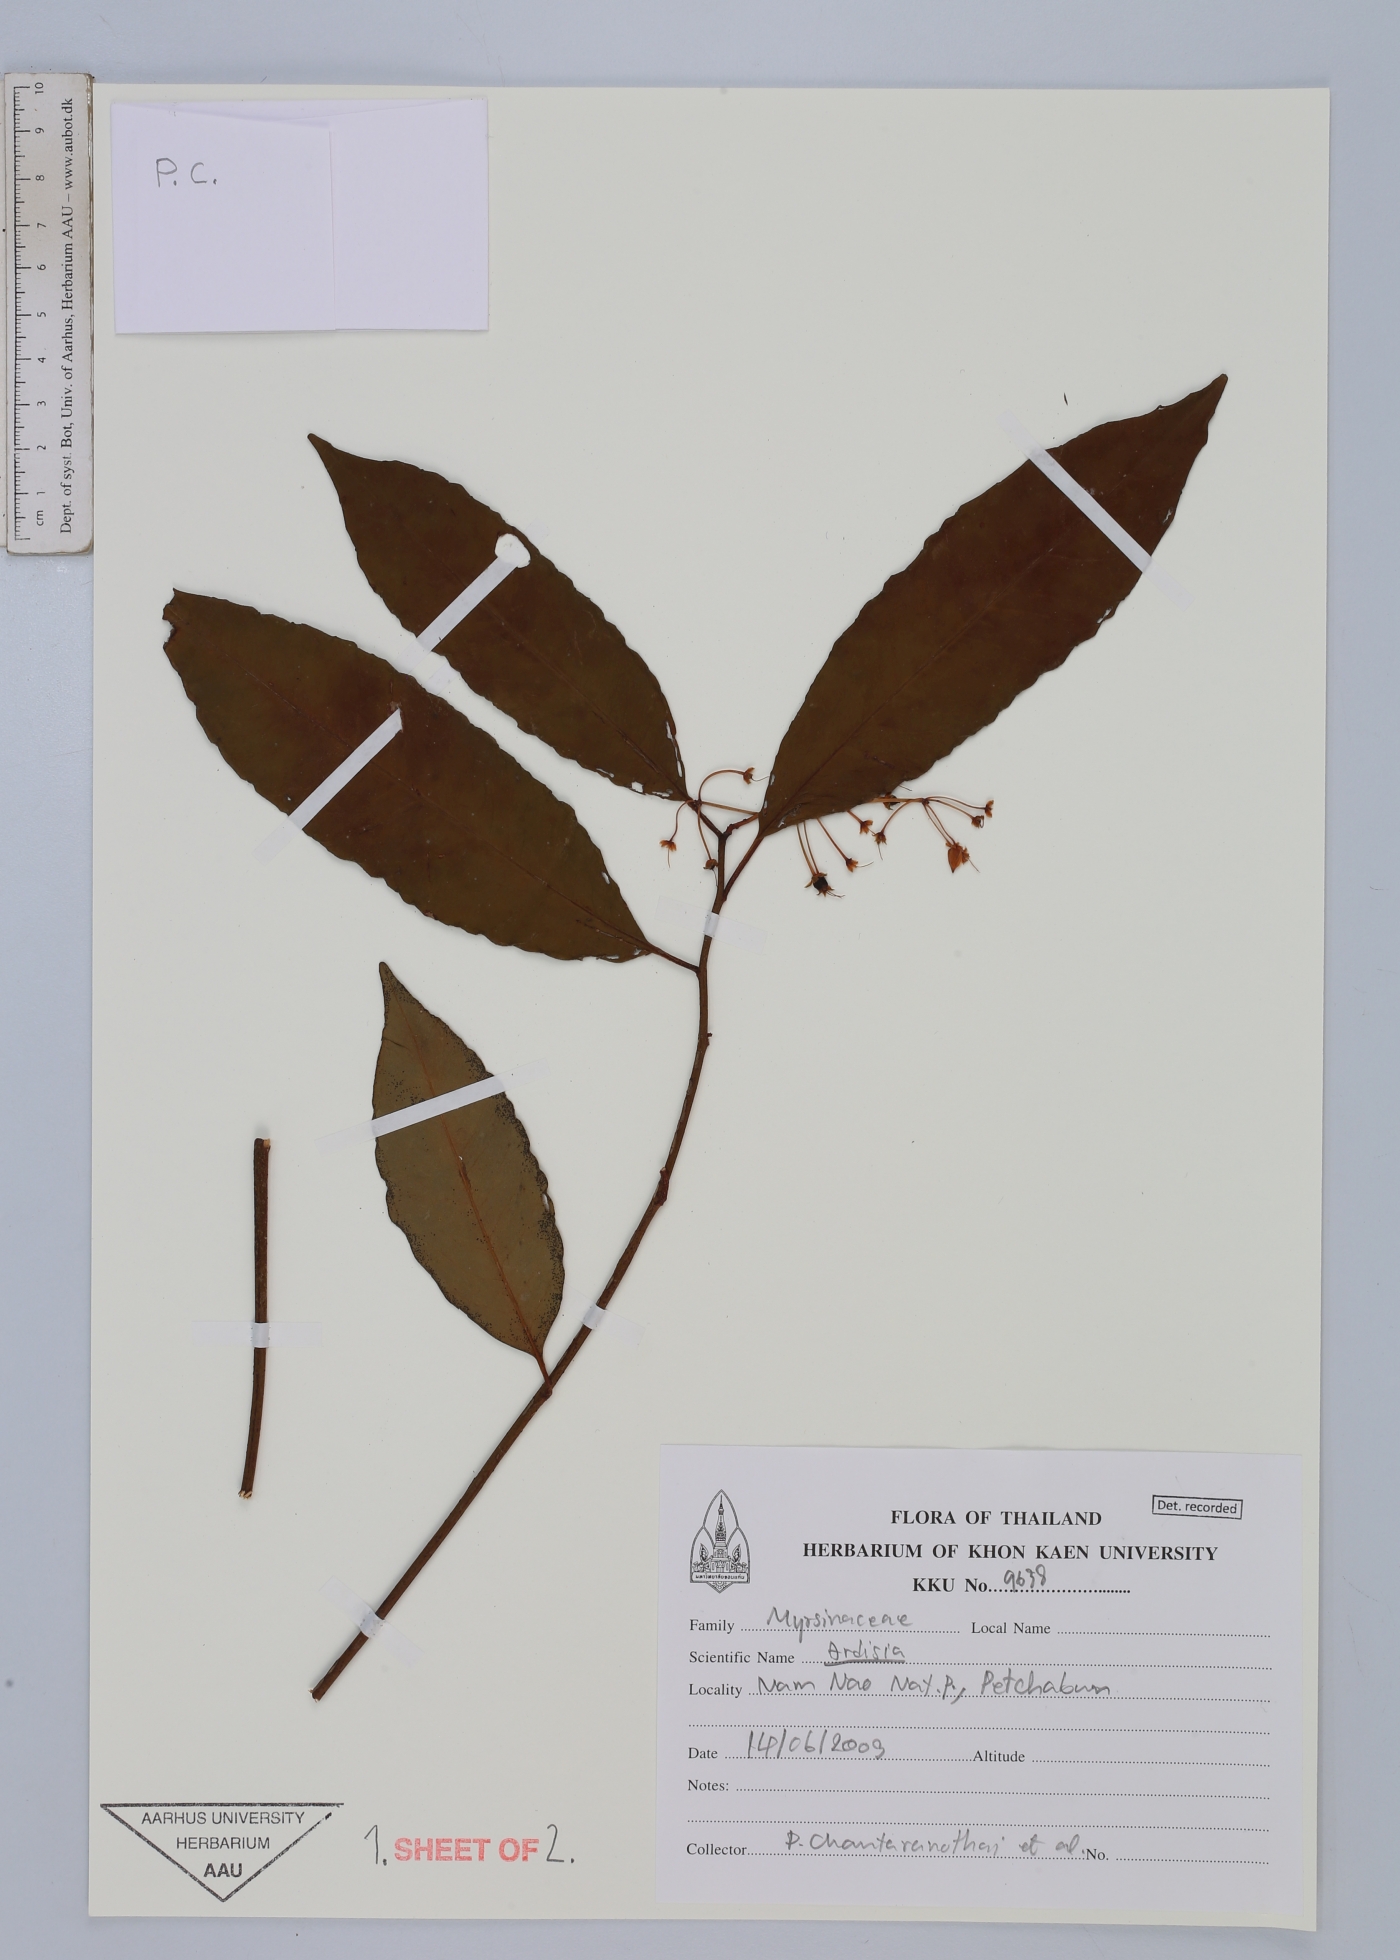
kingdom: Plantae
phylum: Tracheophyta
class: Magnoliopsida
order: Ericales
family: Primulaceae
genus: Ardisia
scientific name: Ardisia
